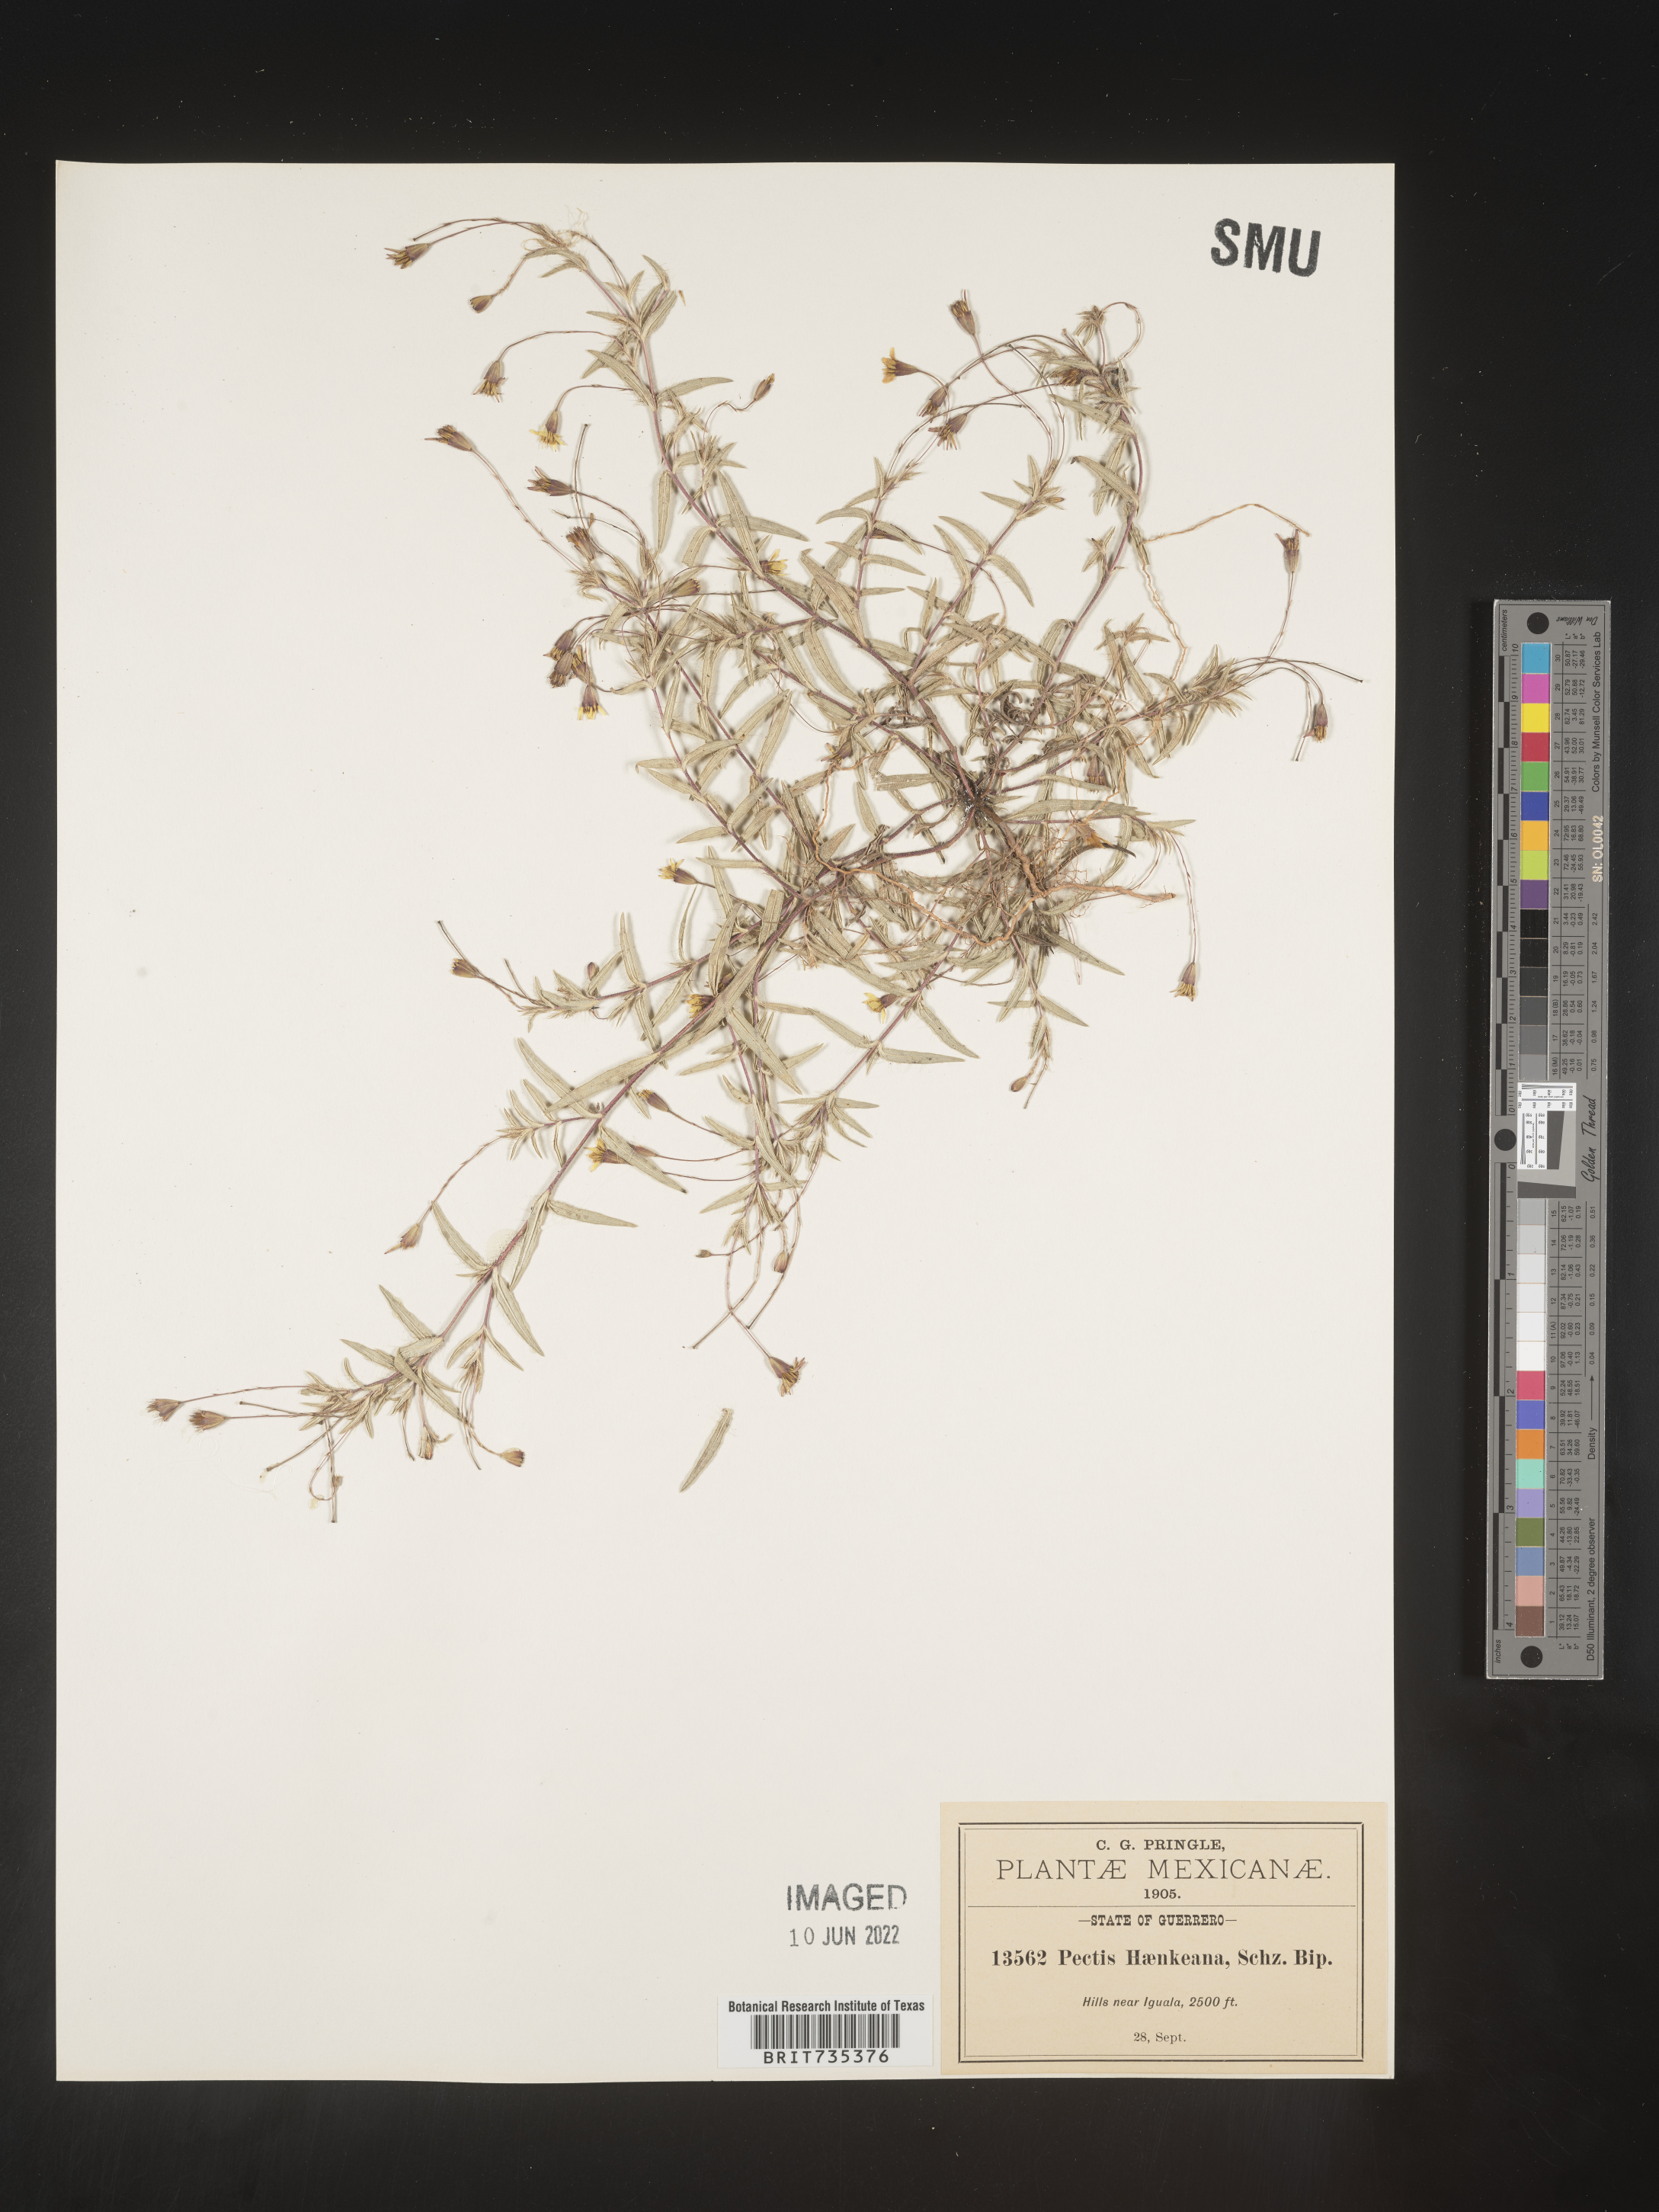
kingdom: Plantae
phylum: Tracheophyta
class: Magnoliopsida
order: Asterales
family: Asteraceae
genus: Pectis
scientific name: Pectis
